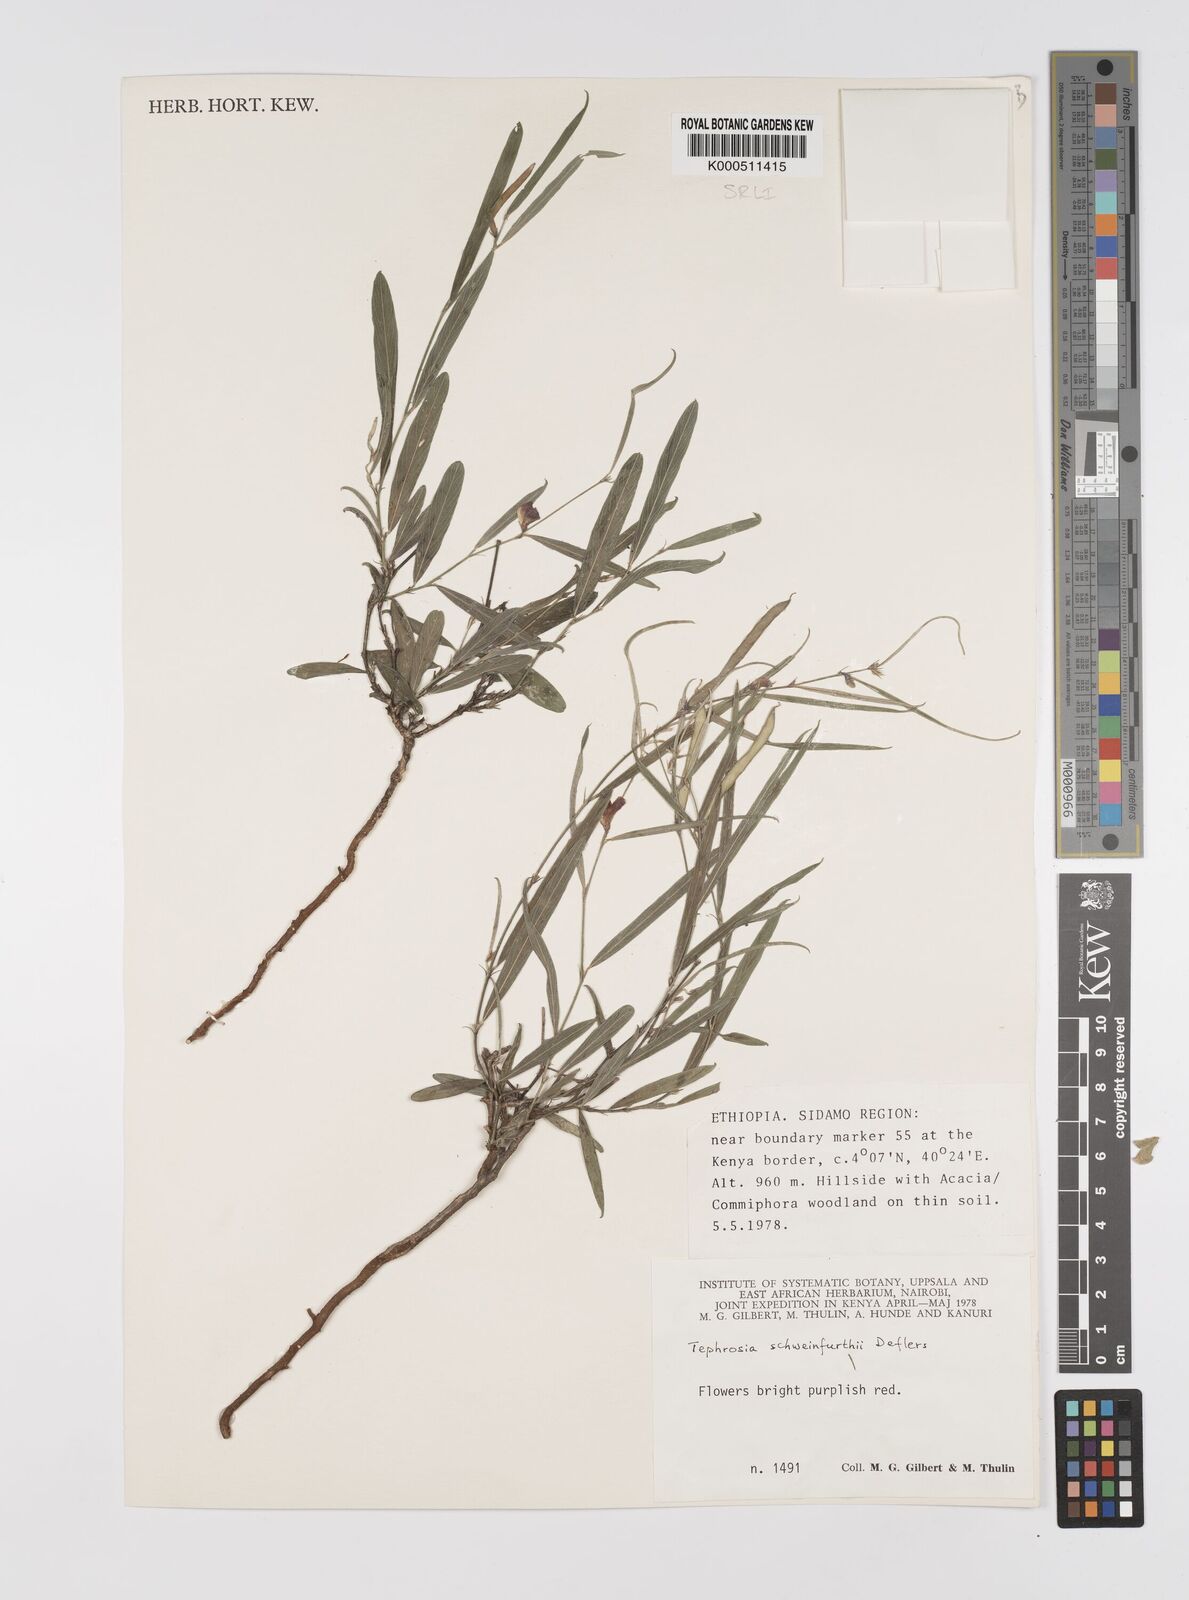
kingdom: Plantae
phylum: Tracheophyta
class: Magnoliopsida
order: Fabales
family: Fabaceae
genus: Tephrosia
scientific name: Tephrosia heterophylla
